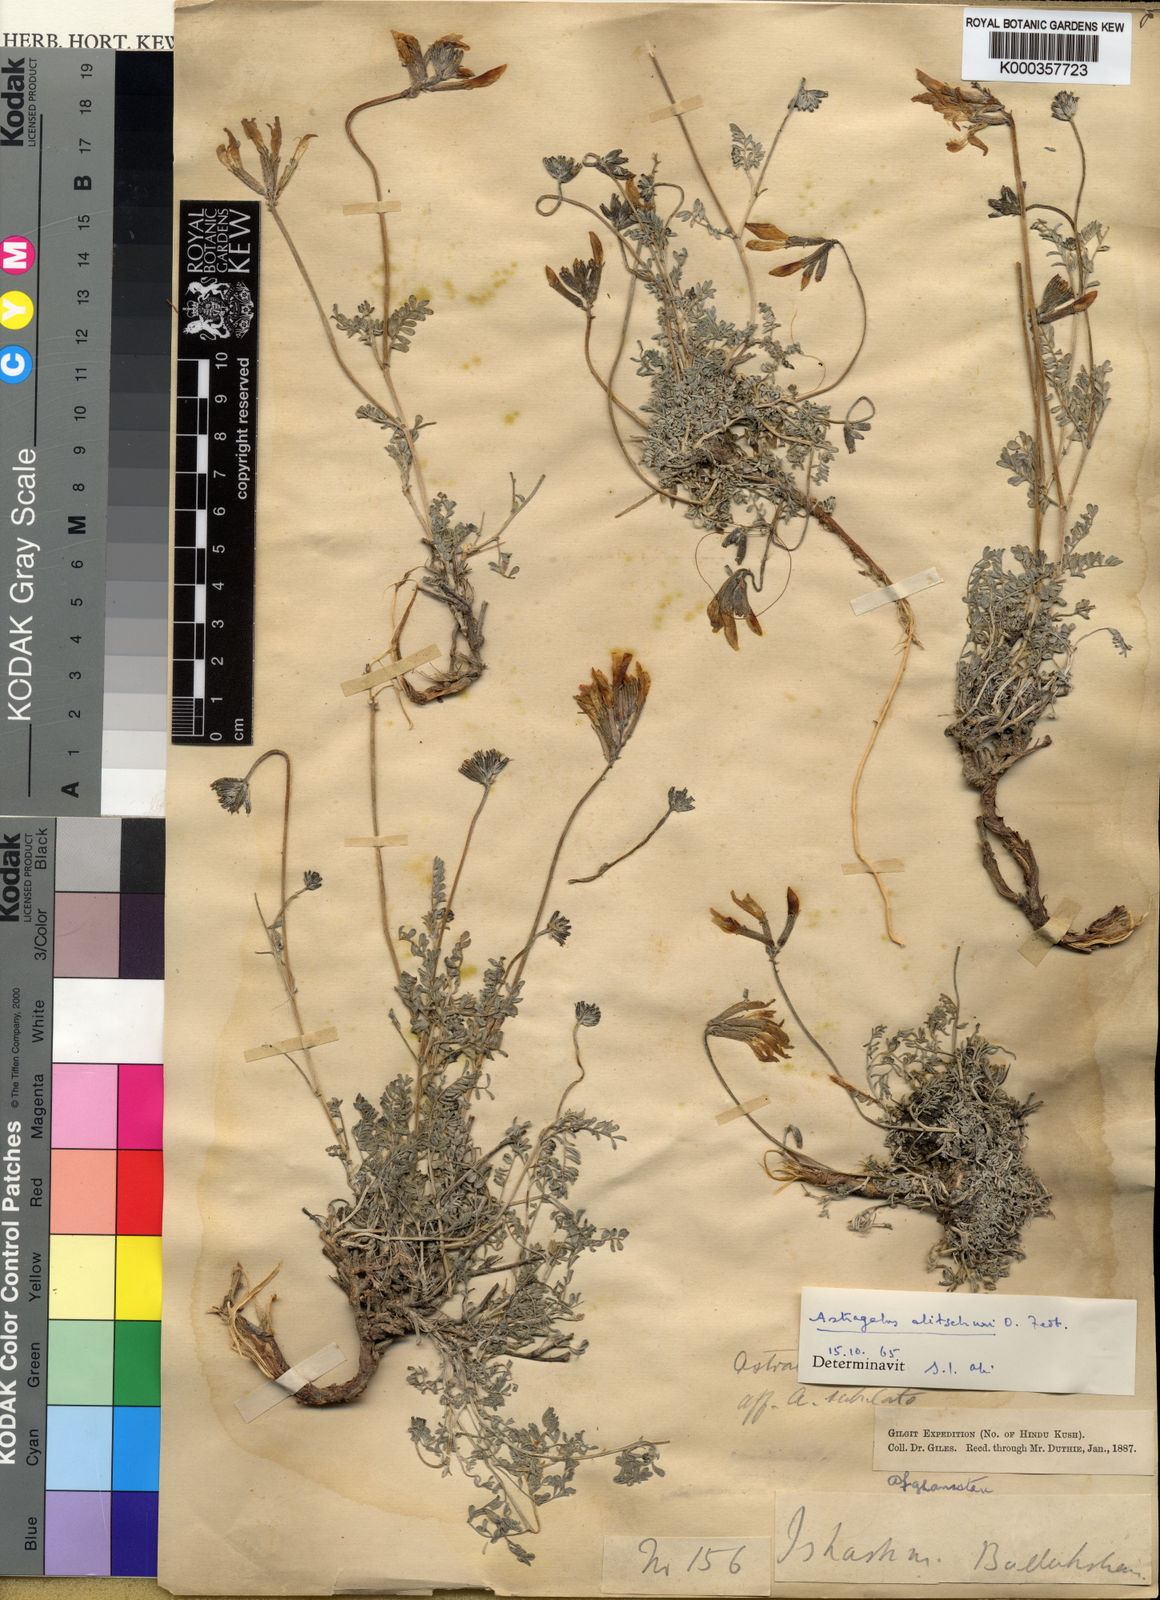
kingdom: Plantae
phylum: Tracheophyta
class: Magnoliopsida
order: Fabales
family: Fabaceae
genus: Astragalus
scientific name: Astragalus alitschuri
